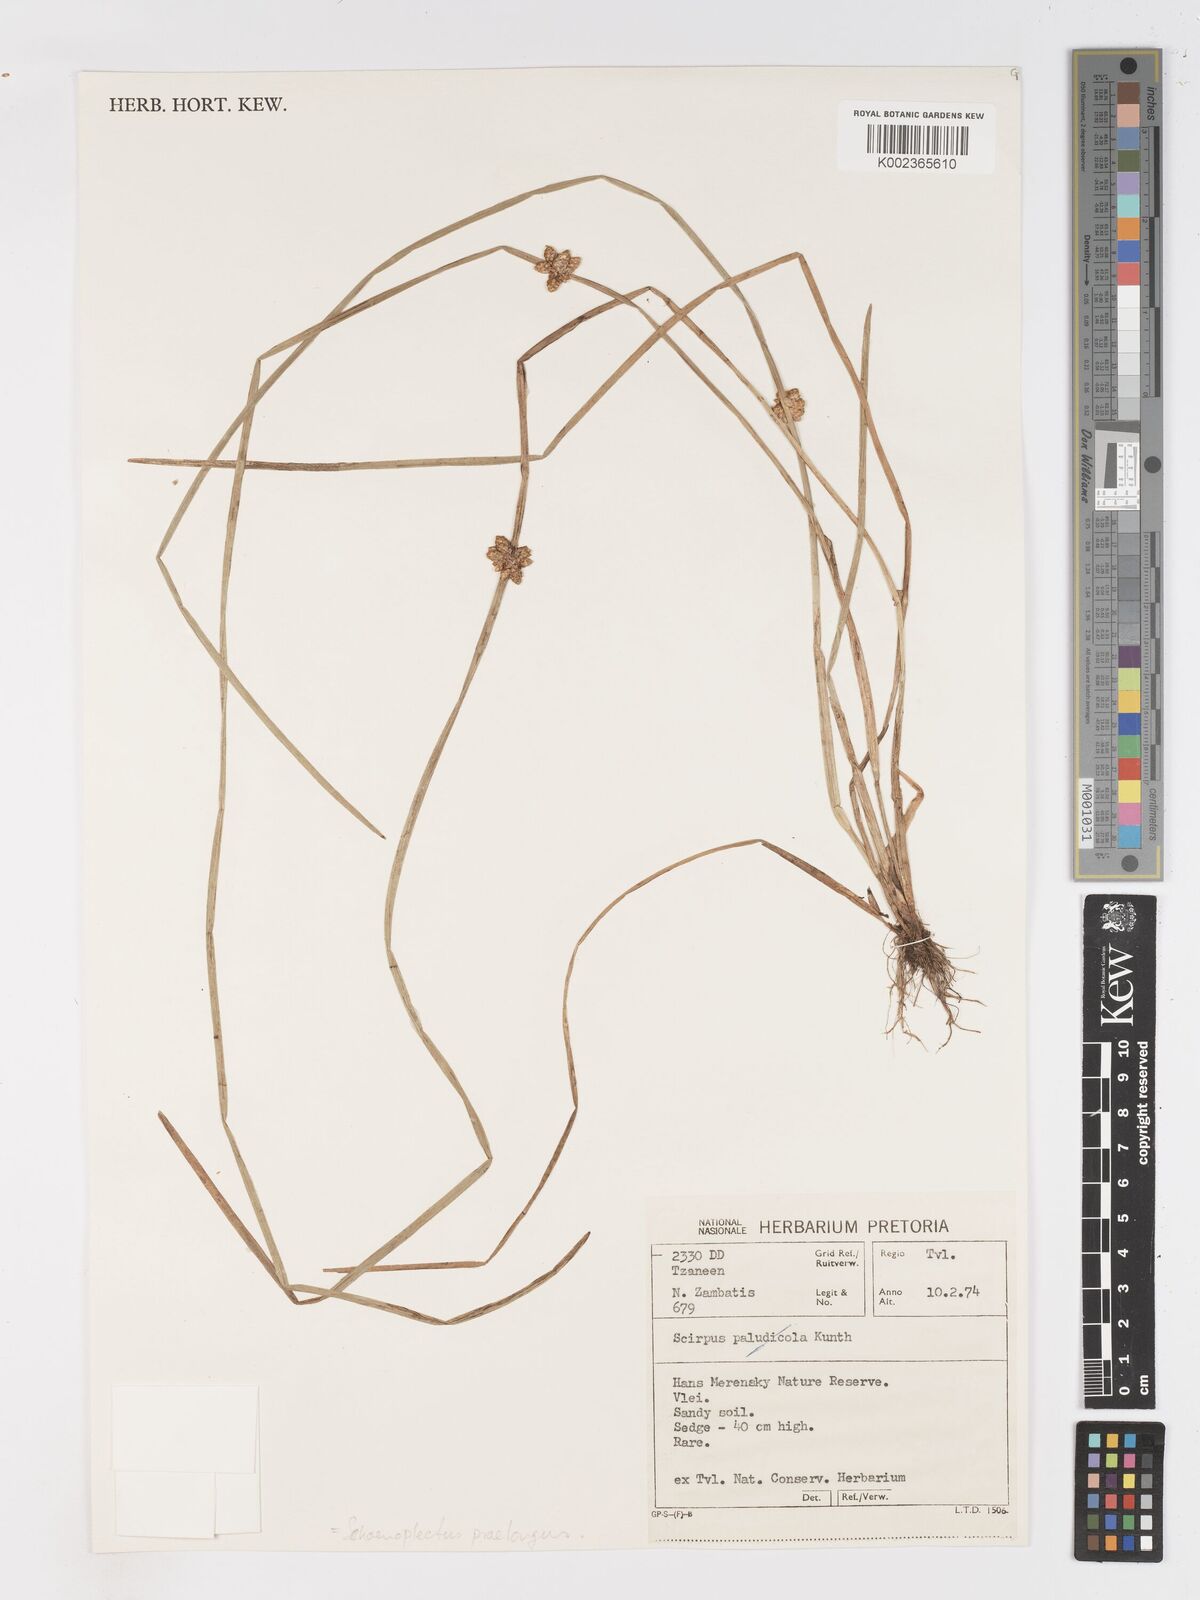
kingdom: Plantae
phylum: Tracheophyta
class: Liliopsida
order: Poales
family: Cyperaceae
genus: Schoenoplectiella
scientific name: Schoenoplectiella praelongata
